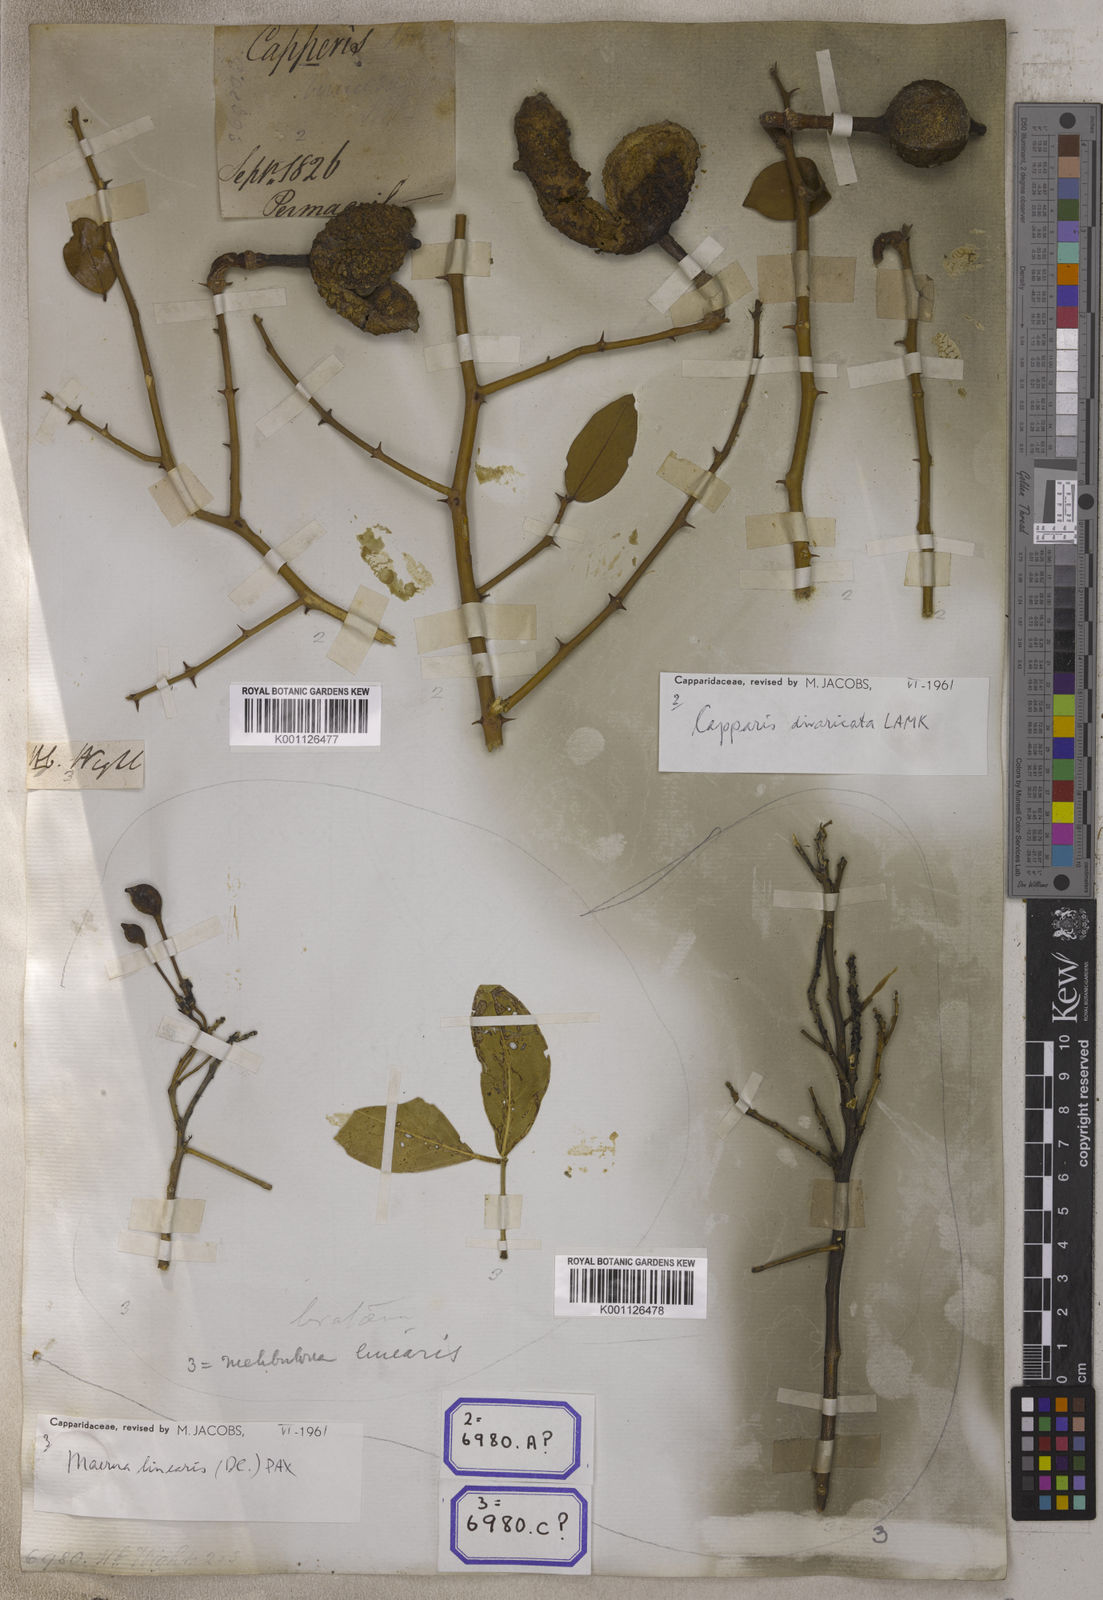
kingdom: Plantae
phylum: Tracheophyta
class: Magnoliopsida
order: Brassicales
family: Capparaceae
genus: Capparis
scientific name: Capparis divaricata
